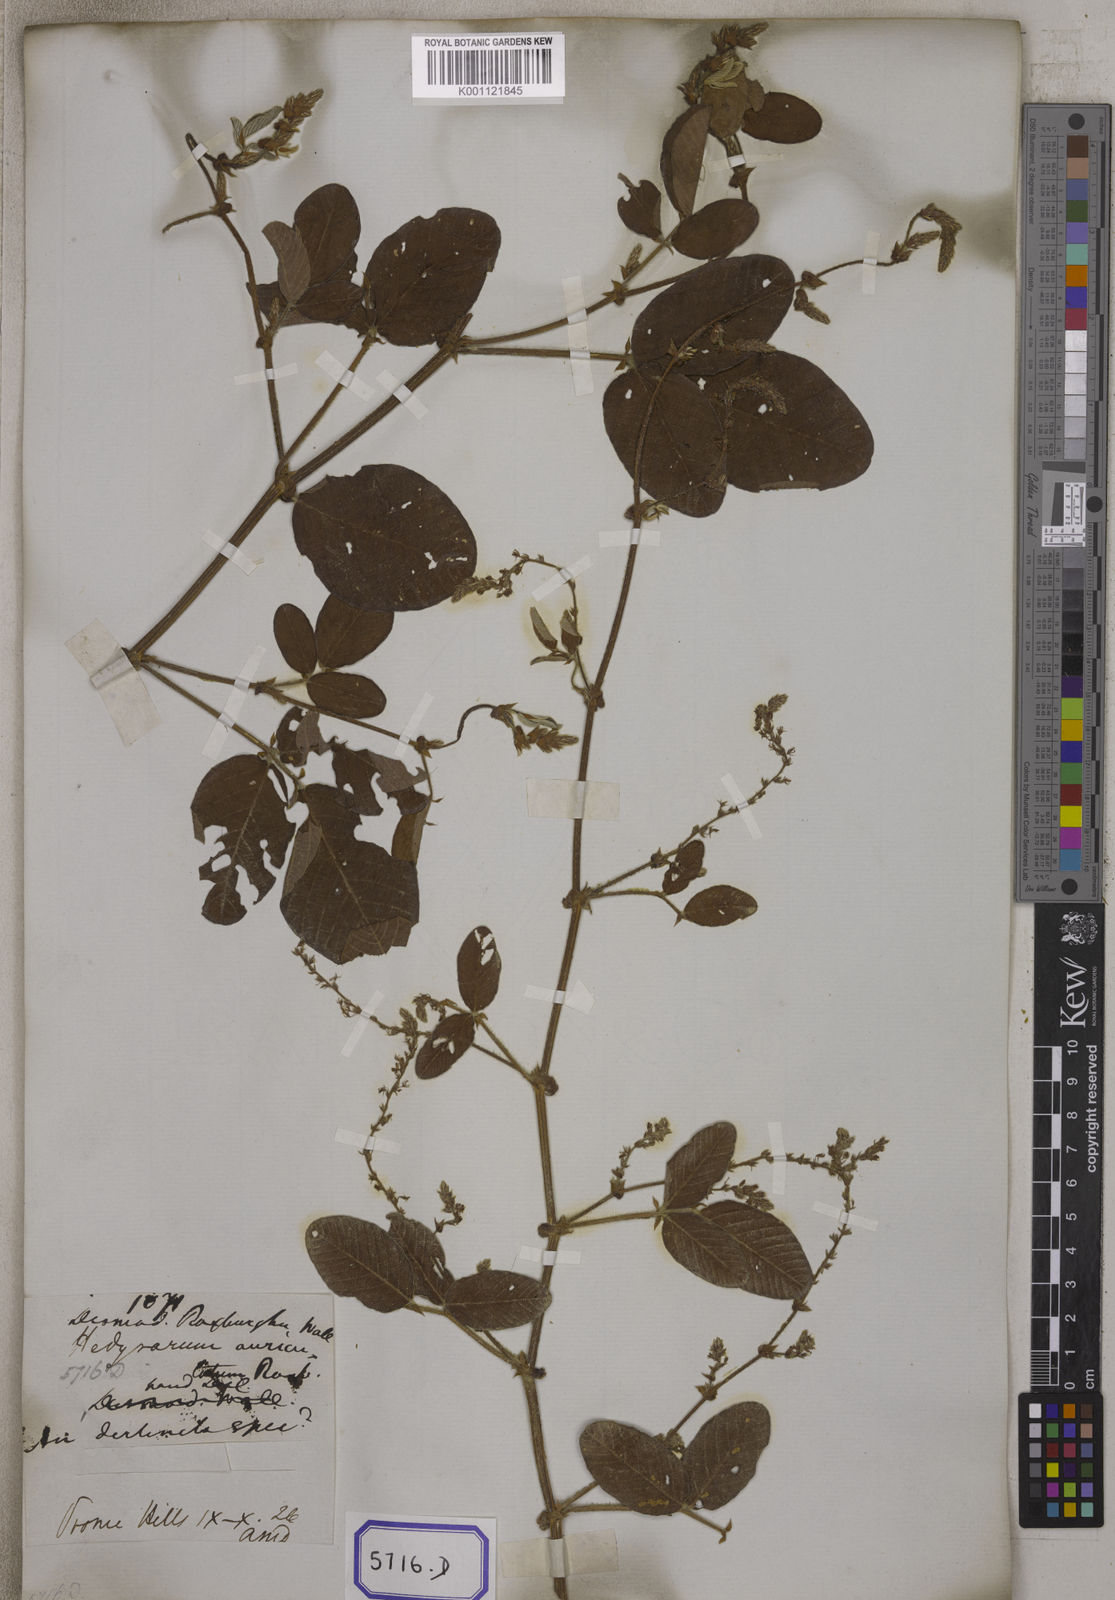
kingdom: Plantae
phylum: Tracheophyta
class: Magnoliopsida
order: Fabales
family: Fabaceae
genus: Polhillides
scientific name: Polhillides velutina
